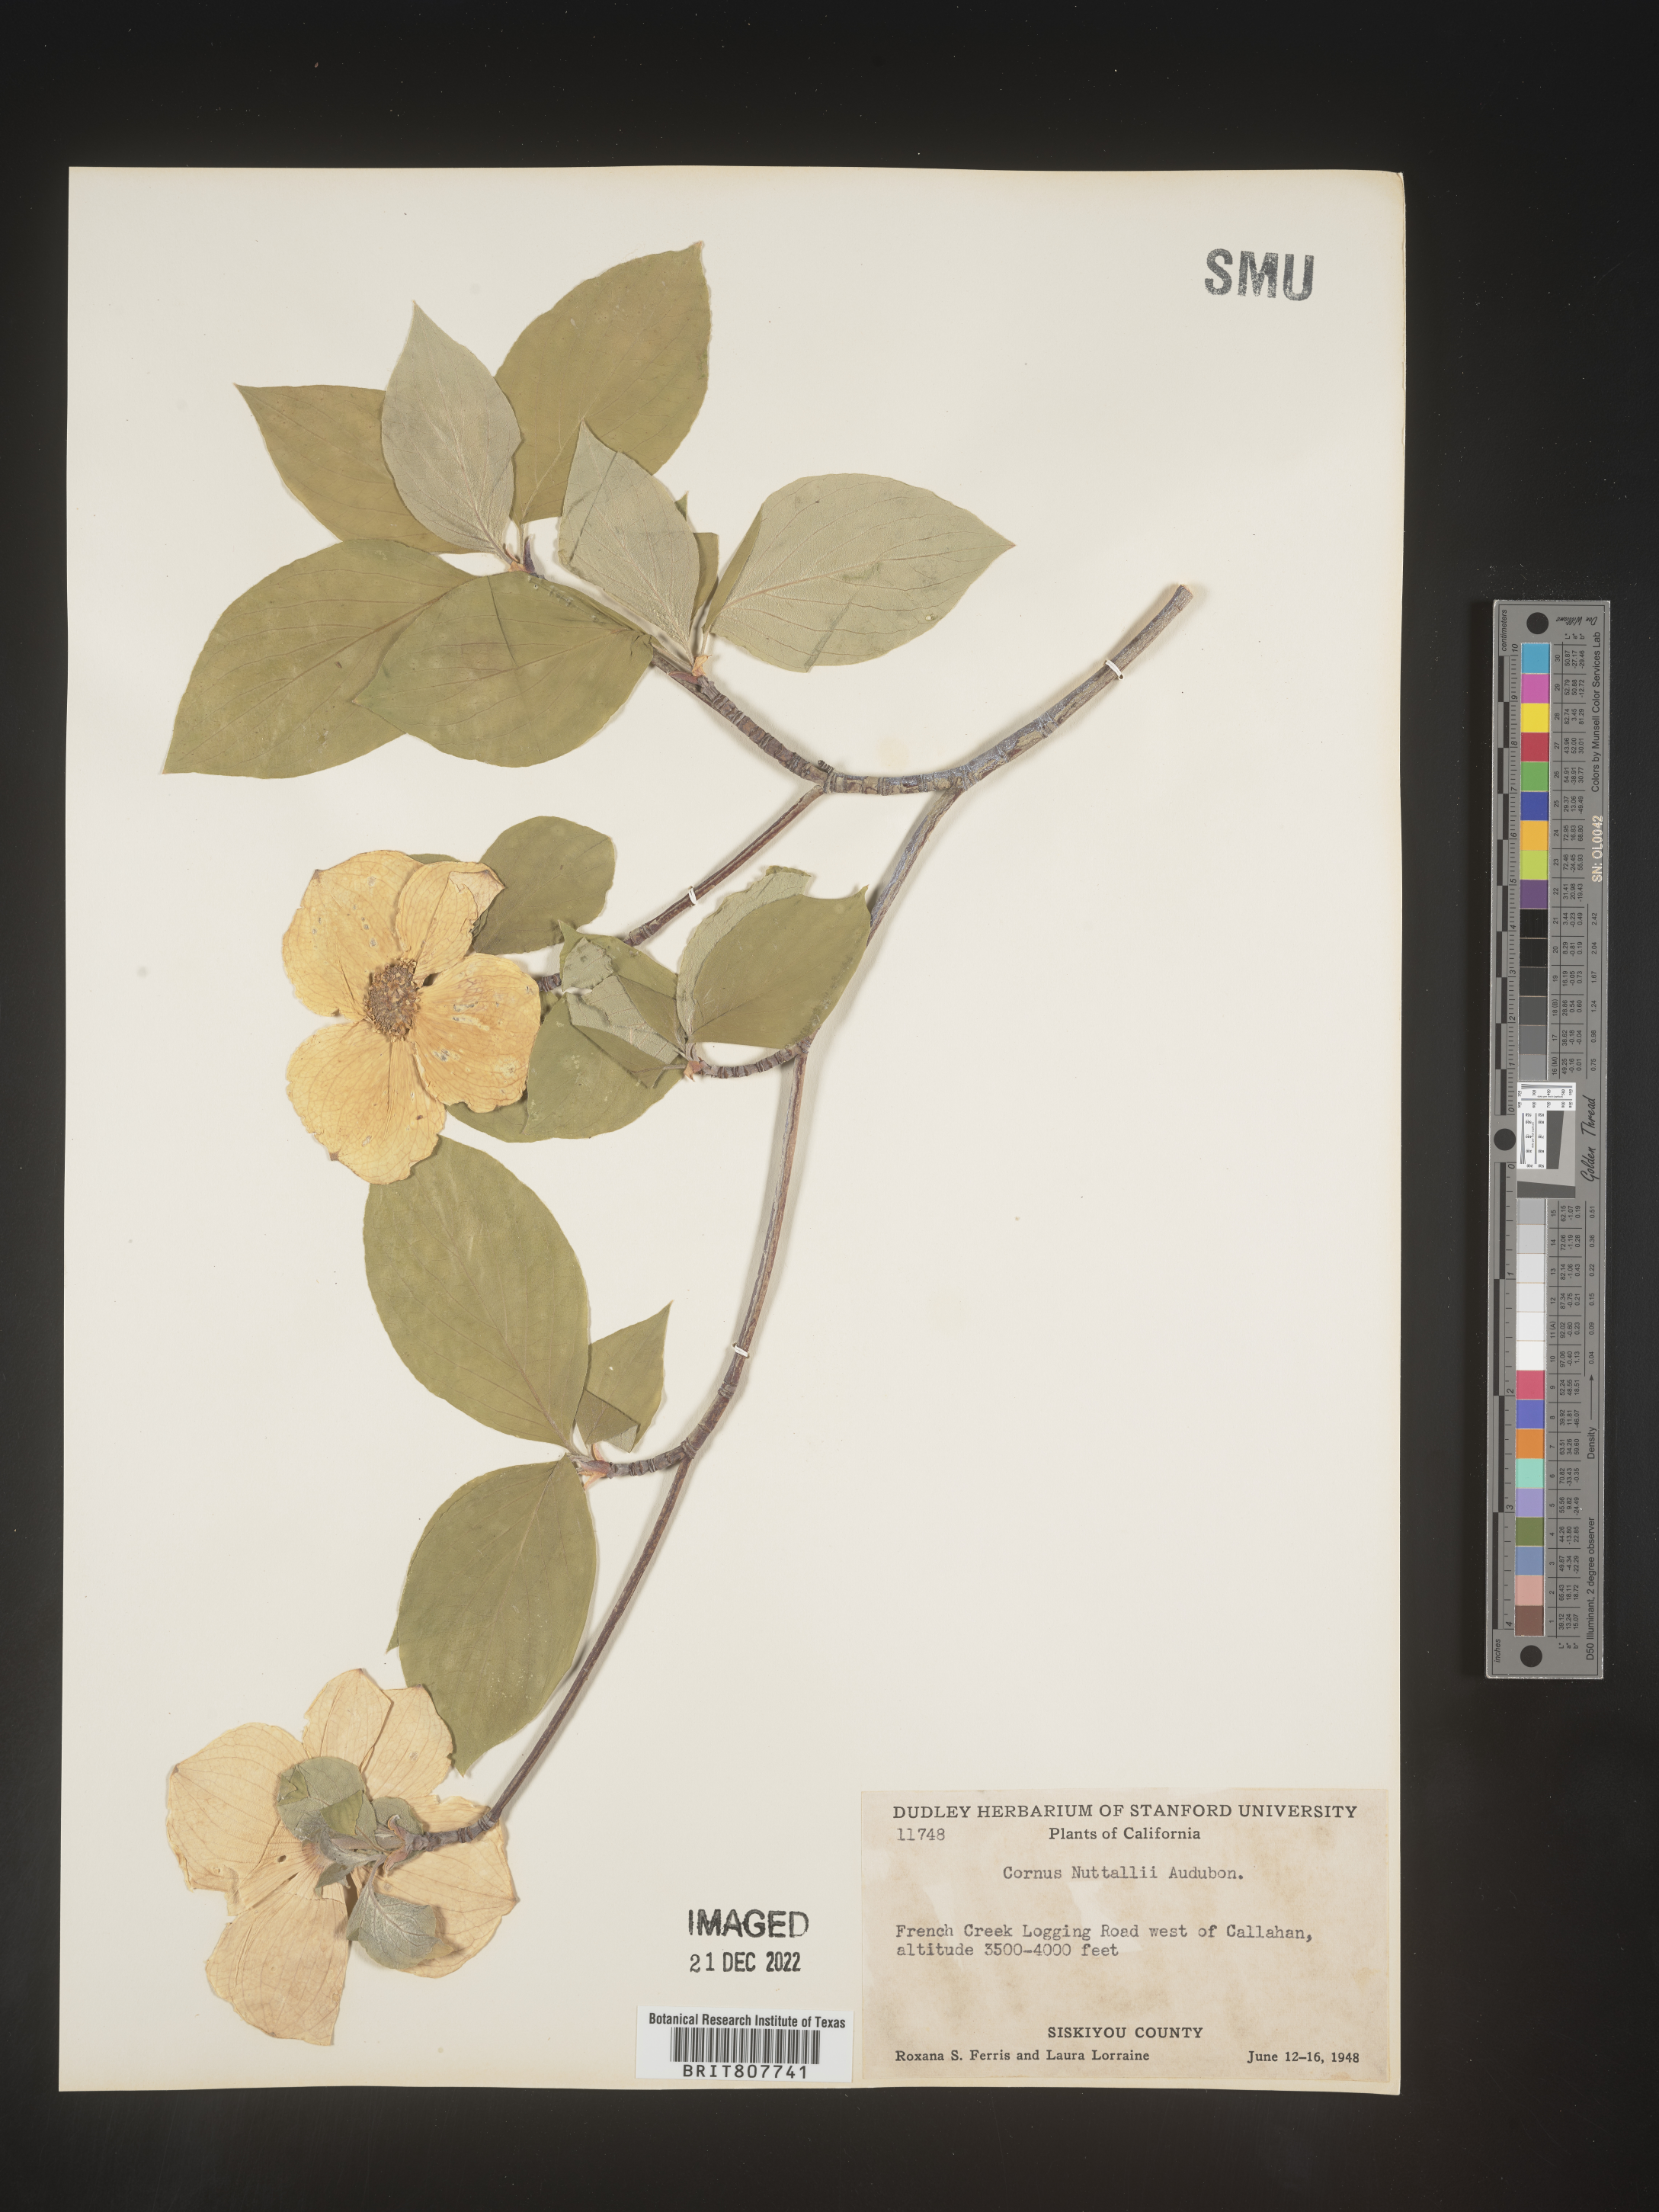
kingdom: Plantae
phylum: Tracheophyta
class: Magnoliopsida
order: Cornales
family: Cornaceae
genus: Cornus
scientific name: Cornus nuttallii
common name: Pacific dogwood
